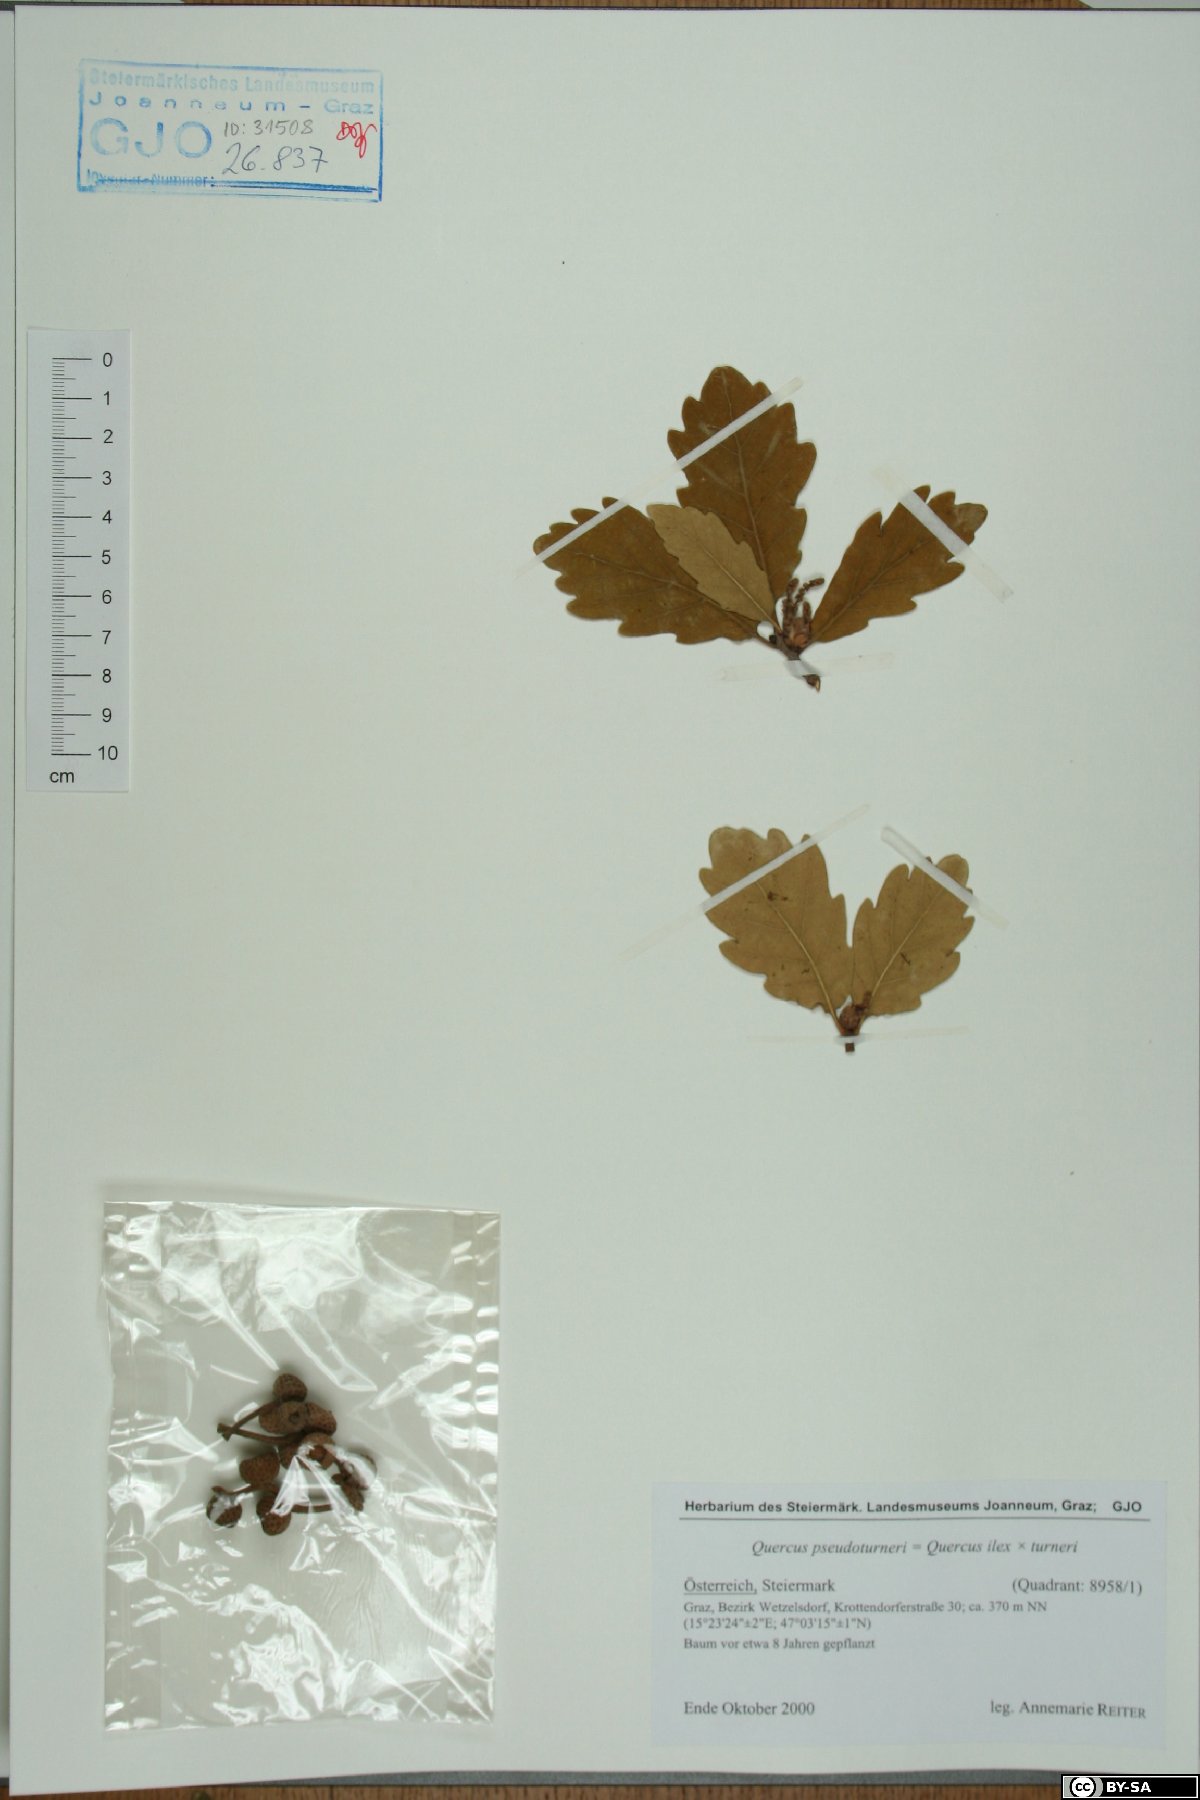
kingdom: Plantae
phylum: Tracheophyta
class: Magnoliopsida
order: Fagales
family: Fagaceae
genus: Quercus
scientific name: Quercus turneri
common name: Turner's oak
